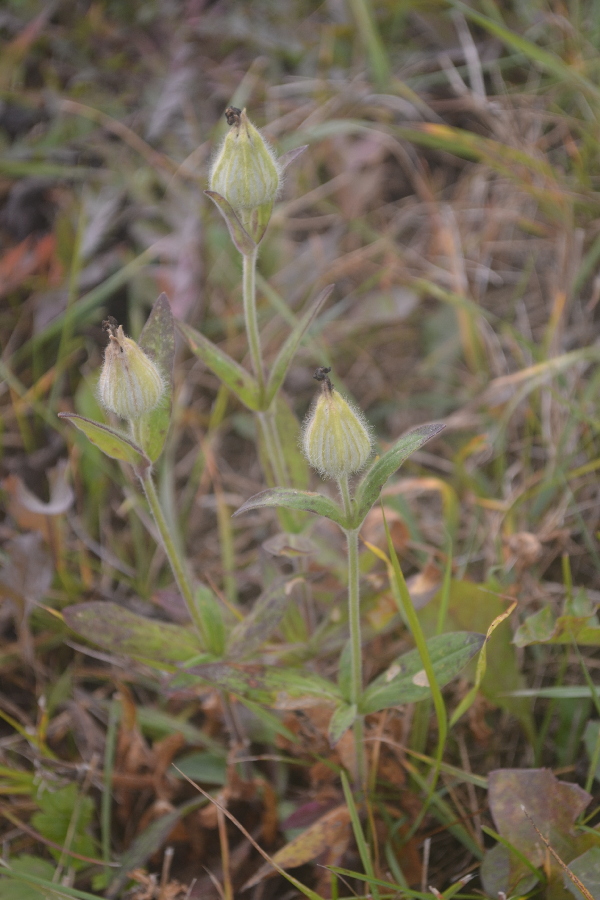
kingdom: Plantae
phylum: Tracheophyta
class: Magnoliopsida
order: Caryophyllales
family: Caryophyllaceae
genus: Silene
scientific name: Silene latifolia
